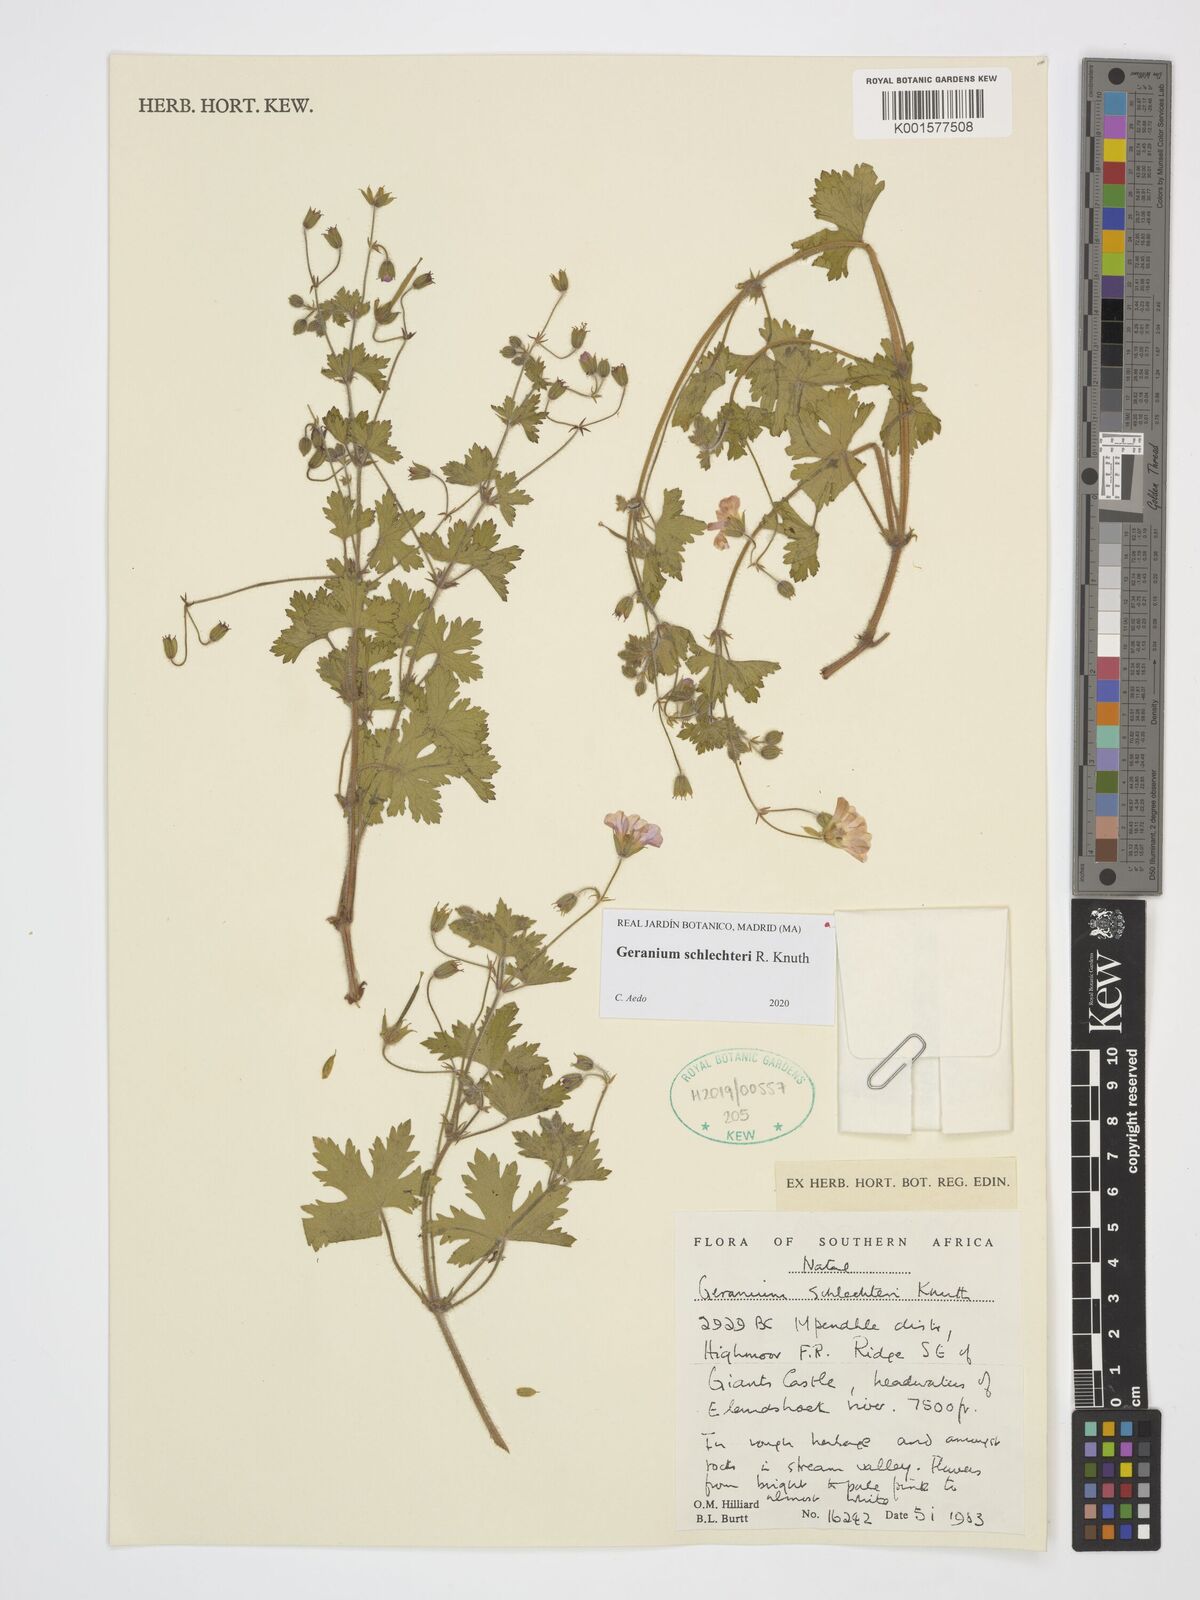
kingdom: Plantae
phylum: Tracheophyta
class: Magnoliopsida
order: Geraniales
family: Geraniaceae
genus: Geranium
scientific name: Geranium schlechteri
